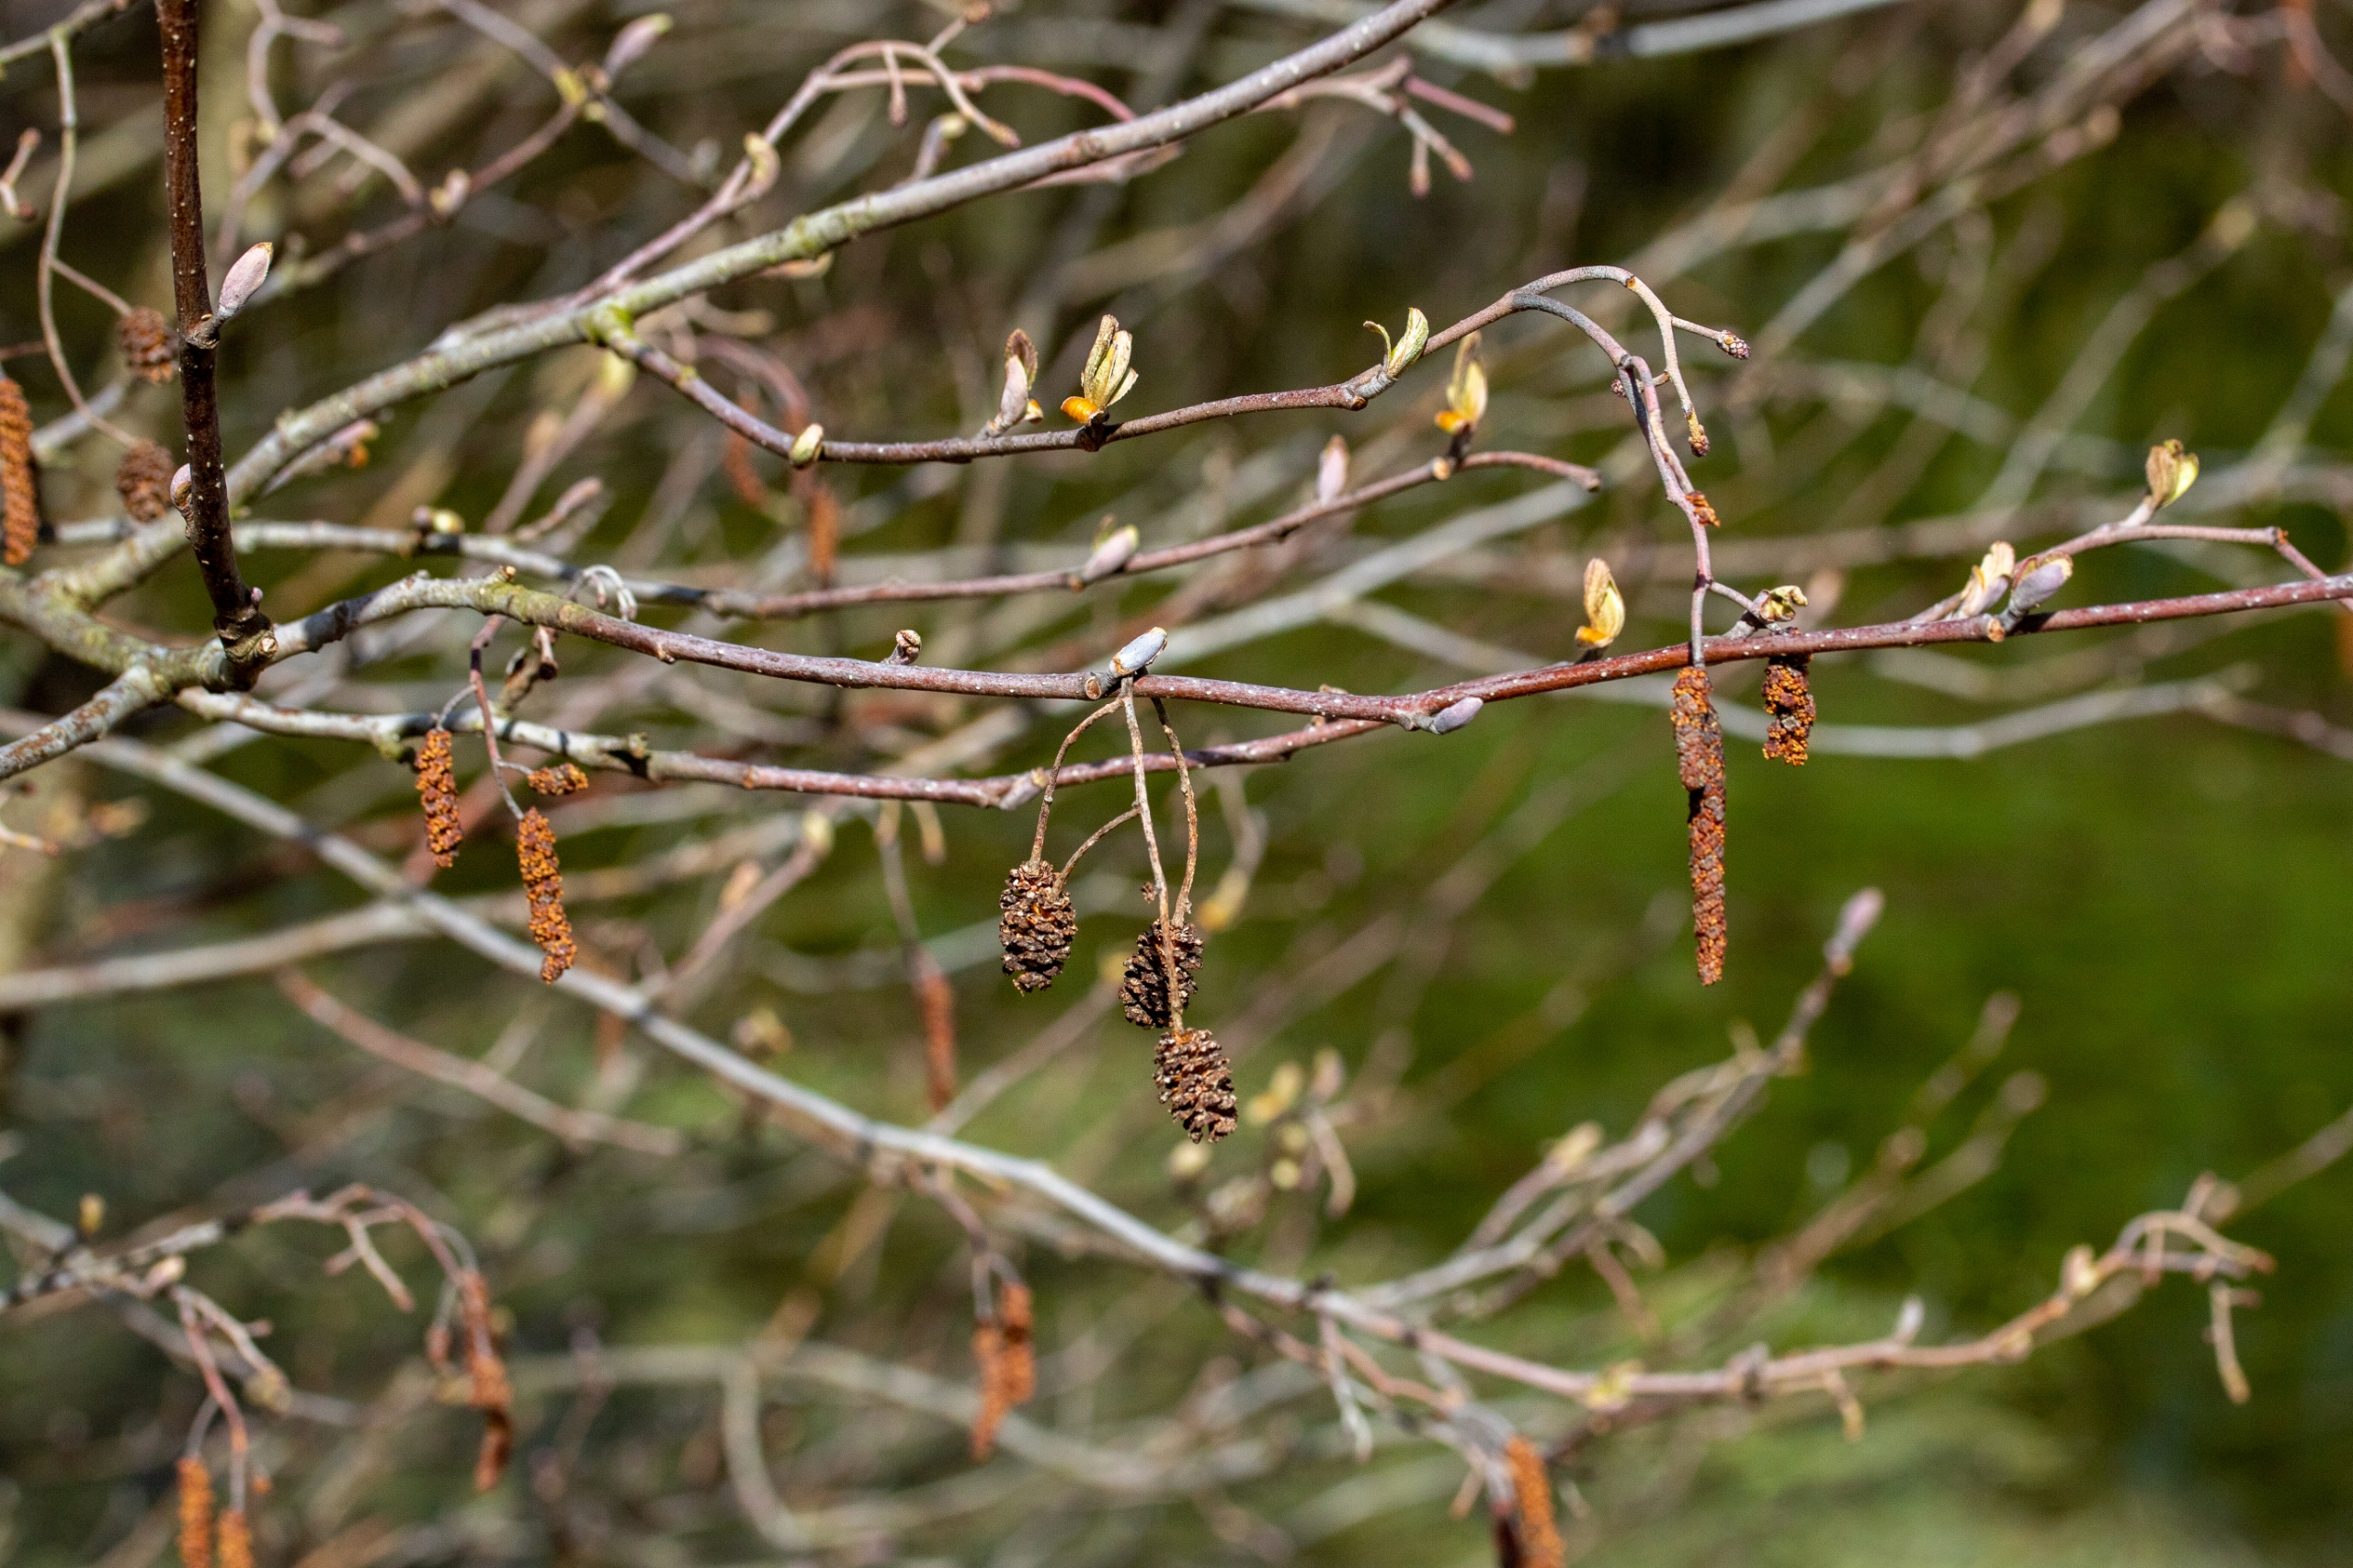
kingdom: Plantae
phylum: Tracheophyta
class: Magnoliopsida
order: Fagales
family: Betulaceae
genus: Alnus
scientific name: Alnus glutinosa
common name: Rød-el
